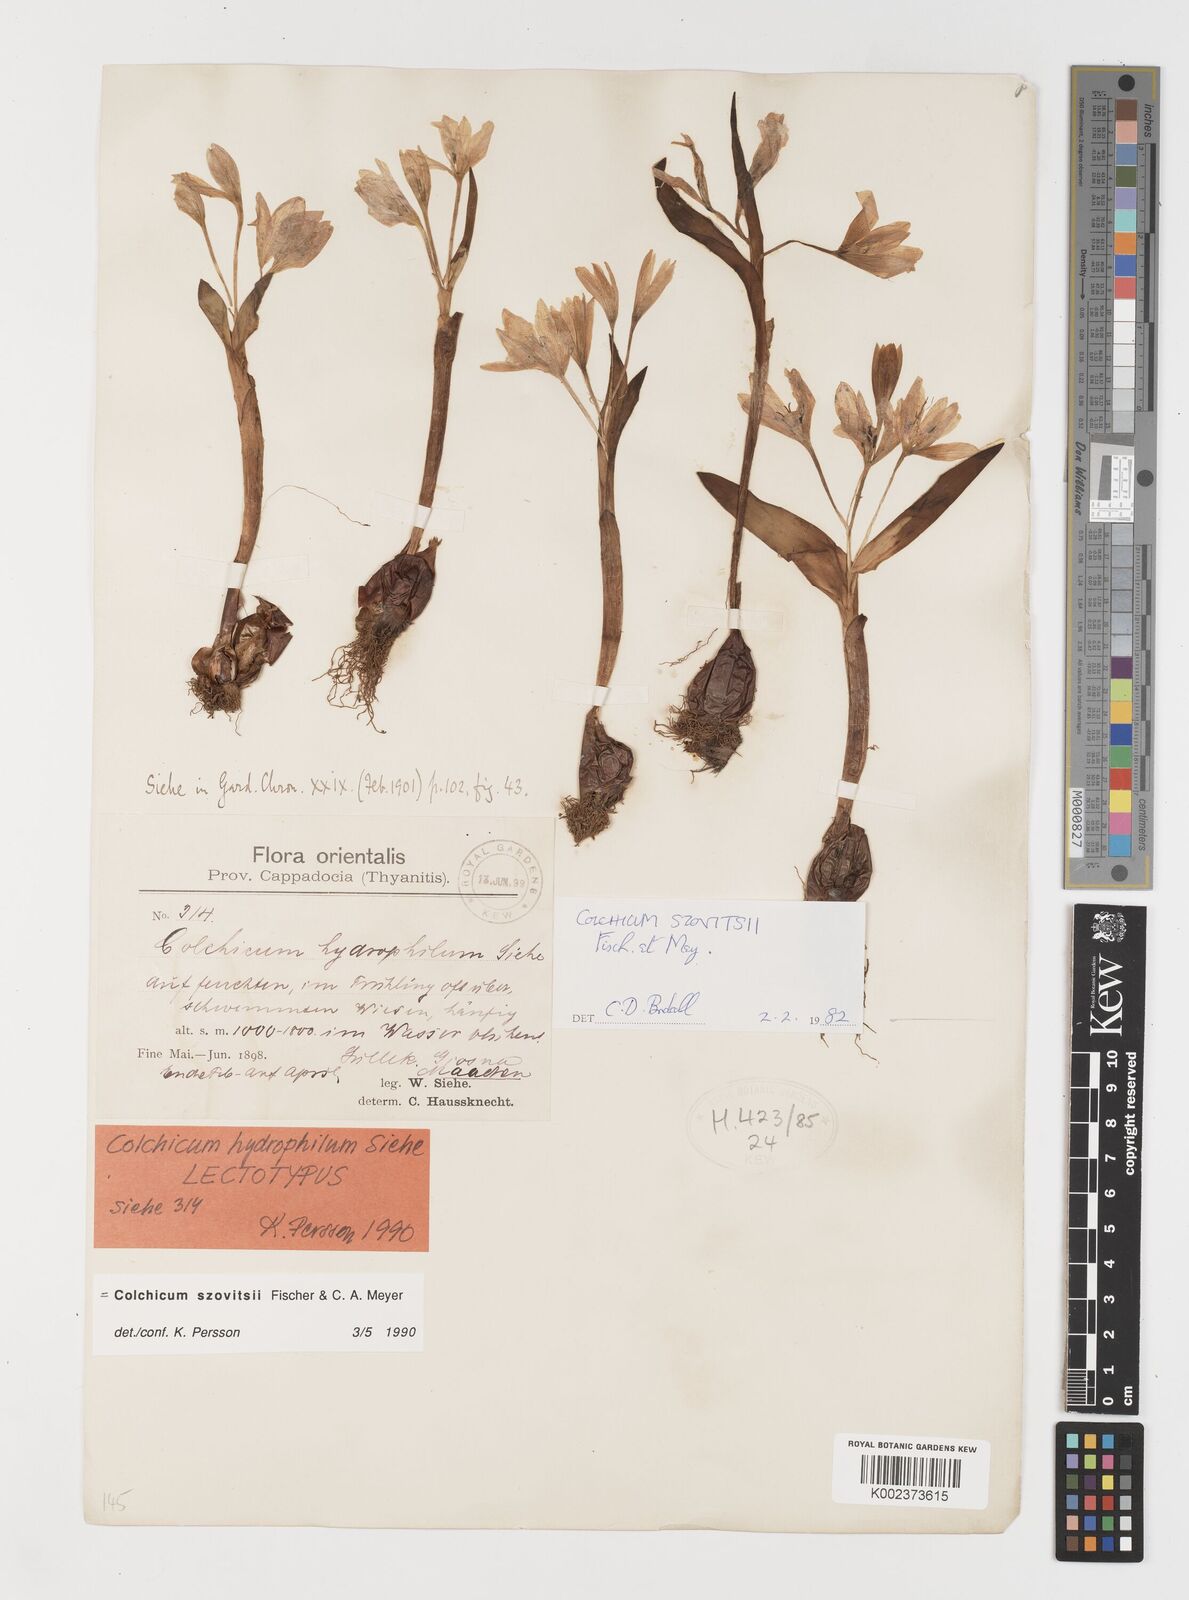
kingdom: Plantae
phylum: Tracheophyta
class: Liliopsida
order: Liliales
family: Colchicaceae
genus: Colchicum
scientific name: Colchicum szovitsii
